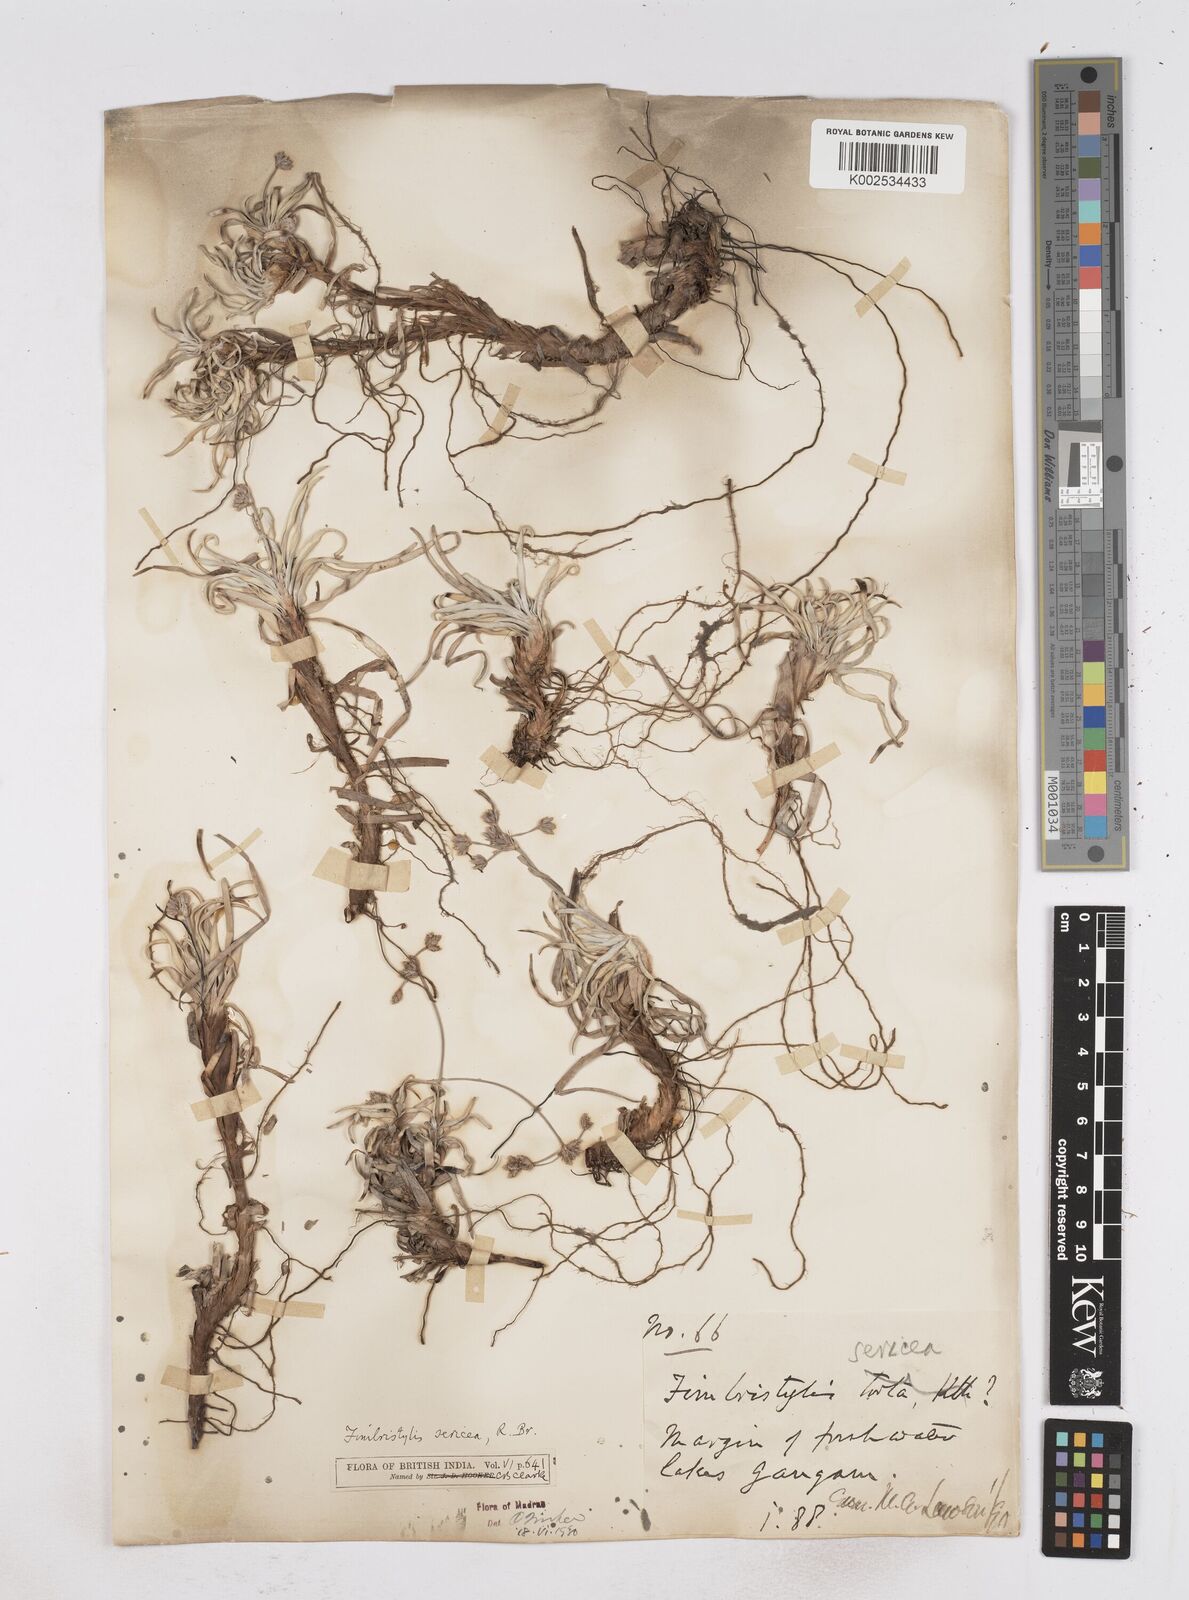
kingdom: Plantae
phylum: Tracheophyta
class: Liliopsida
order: Poales
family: Cyperaceae
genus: Fimbristylis
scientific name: Fimbristylis sericea
